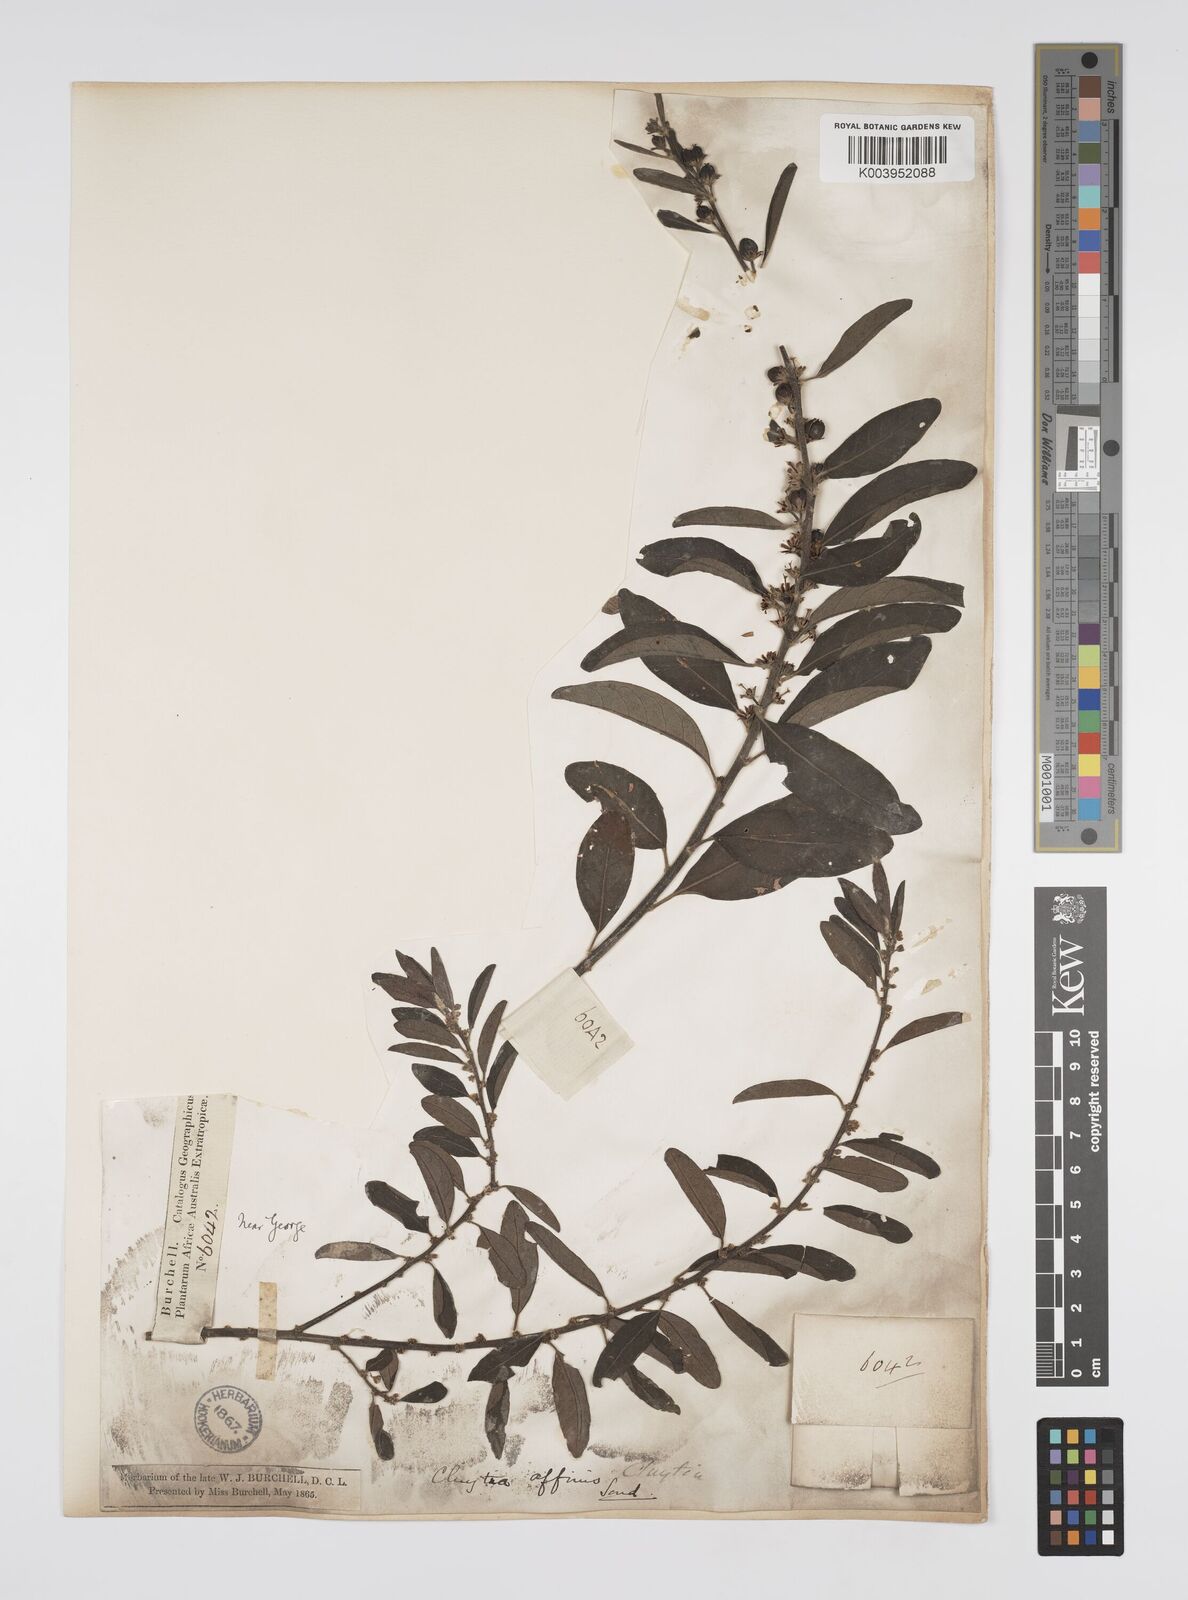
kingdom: Plantae
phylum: Tracheophyta
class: Magnoliopsida
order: Malpighiales
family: Peraceae
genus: Clutia
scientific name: Clutia affinis
